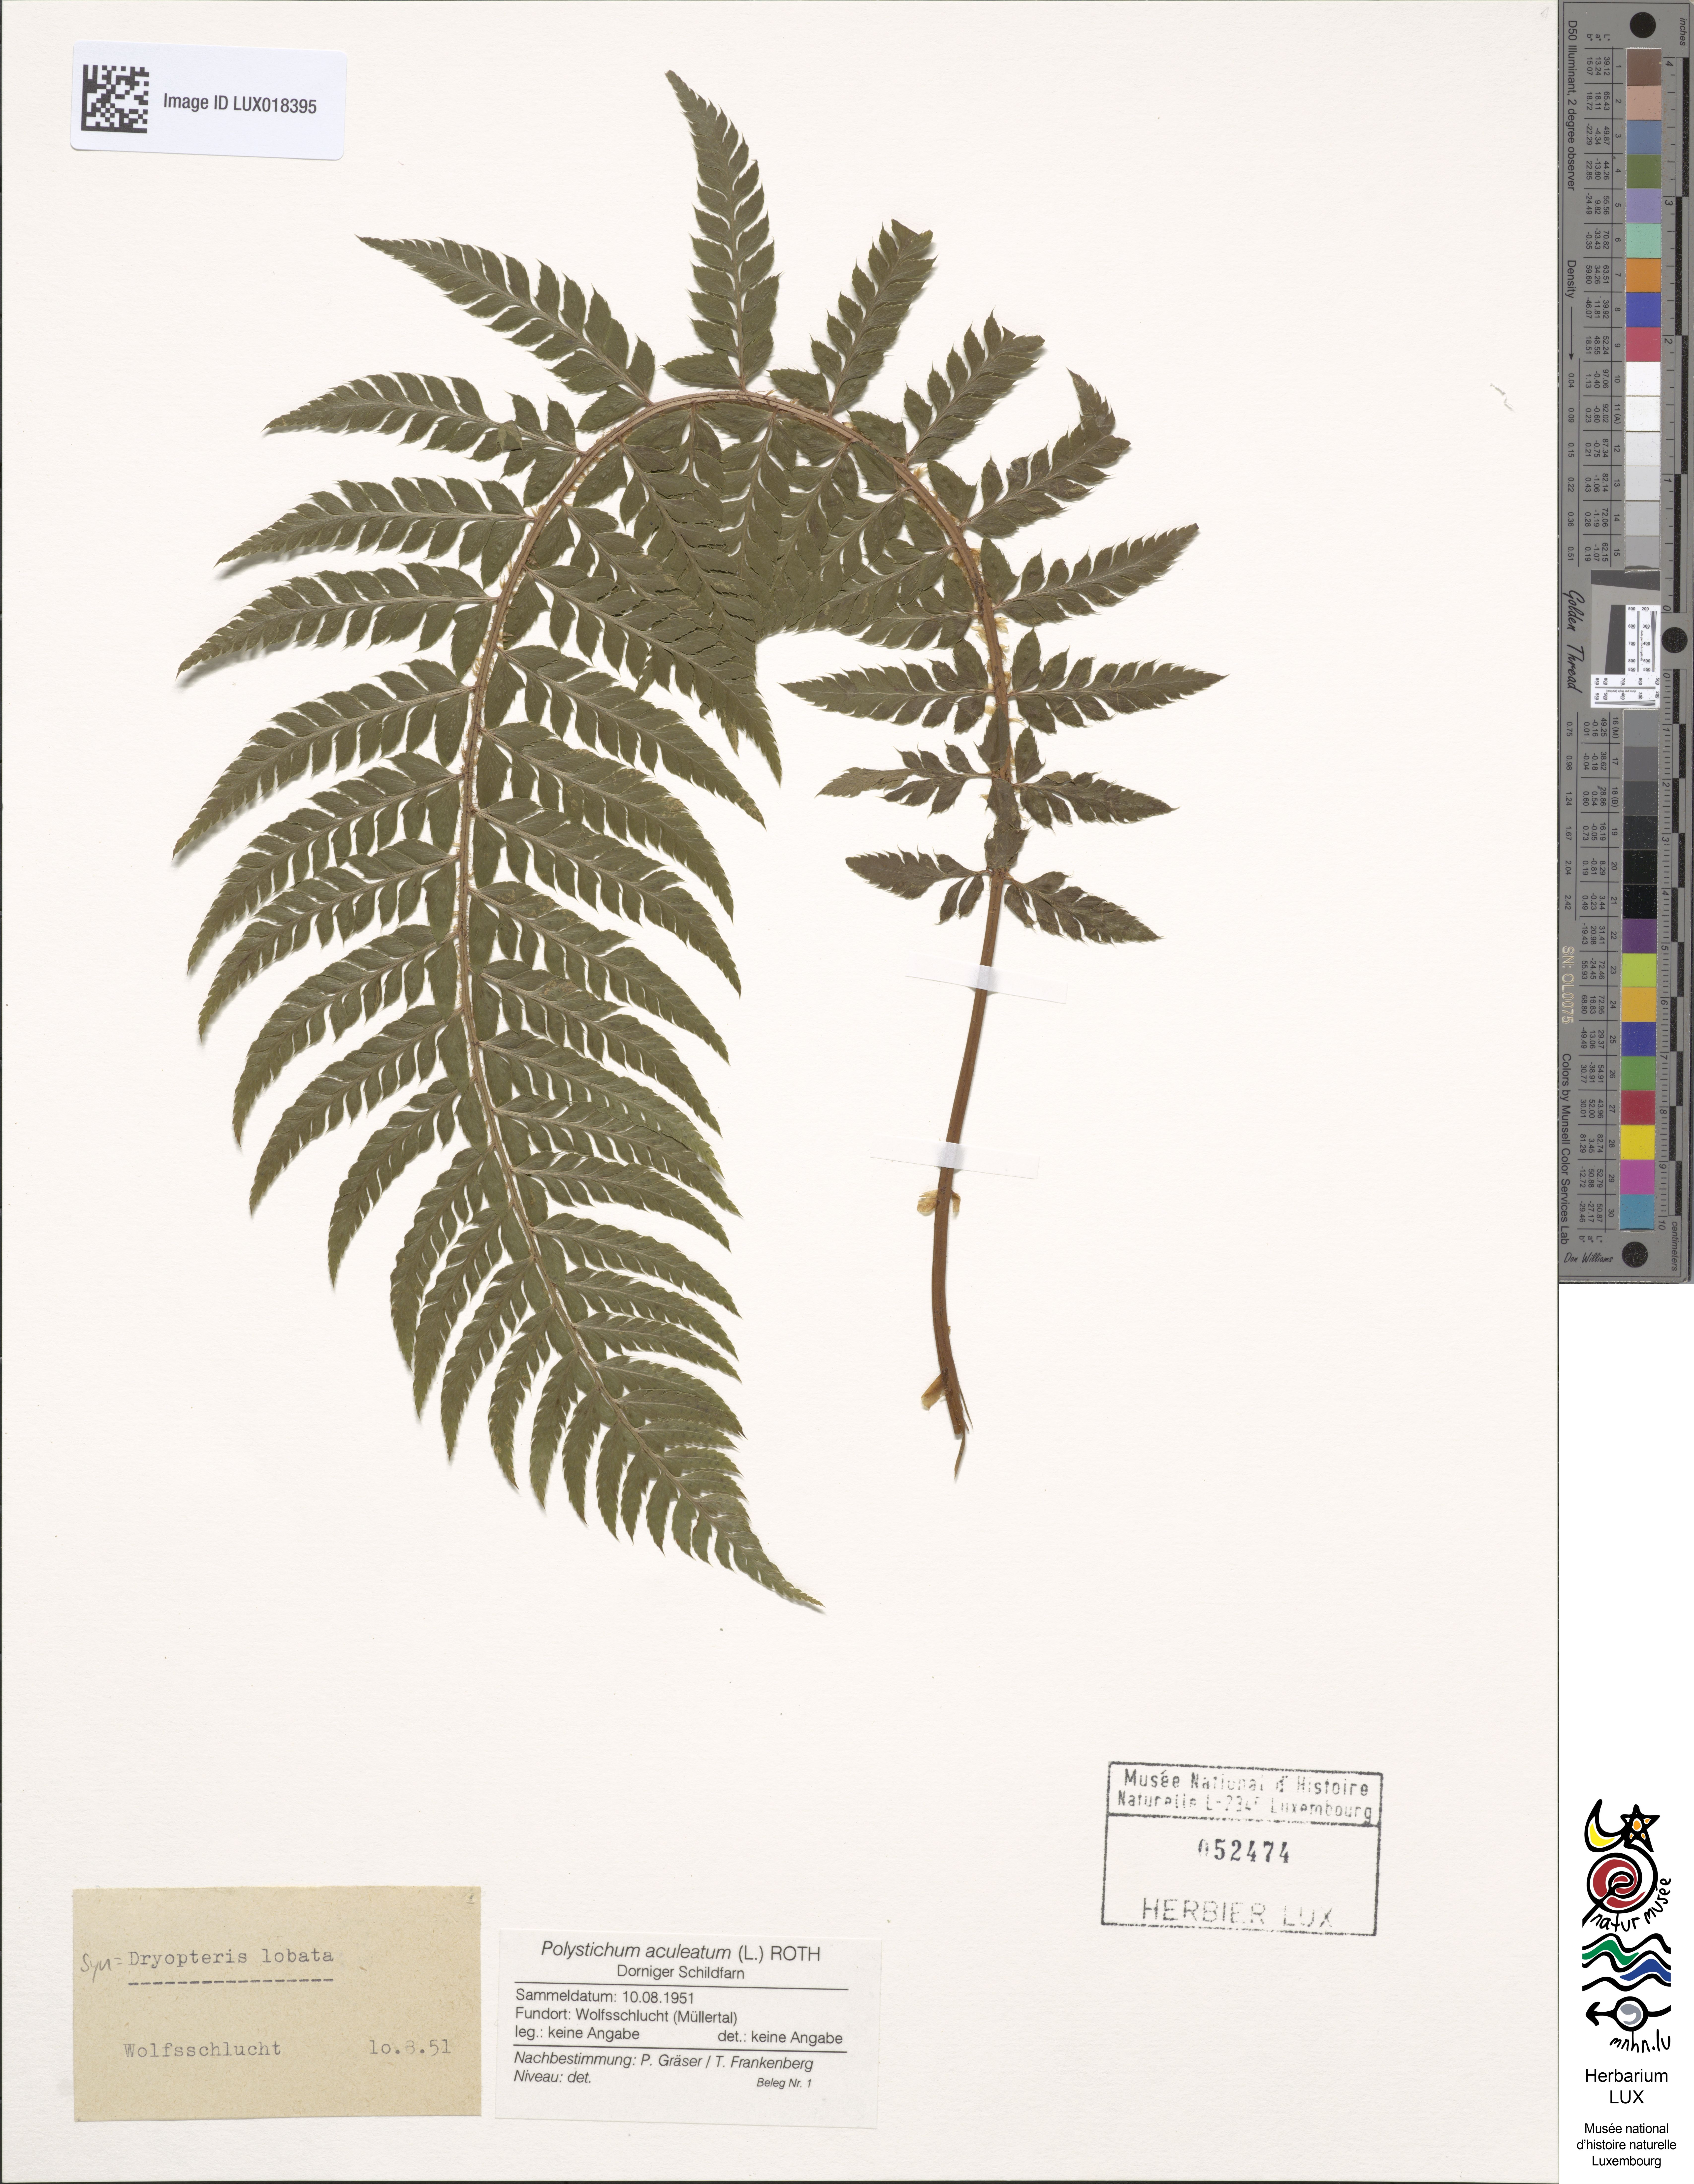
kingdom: Plantae
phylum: Tracheophyta
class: Polypodiopsida
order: Polypodiales
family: Dryopteridaceae
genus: Polystichum
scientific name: Polystichum aculeatum
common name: Hard shield-fern
